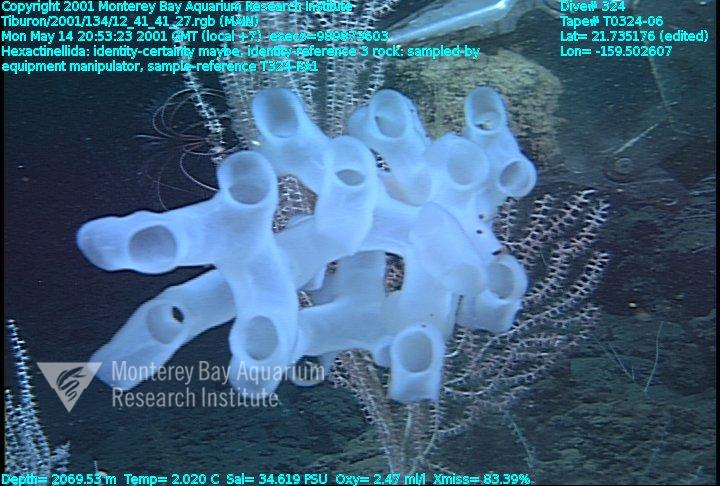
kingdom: Animalia
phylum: Porifera
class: Hexactinellida
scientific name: Hexactinellida
